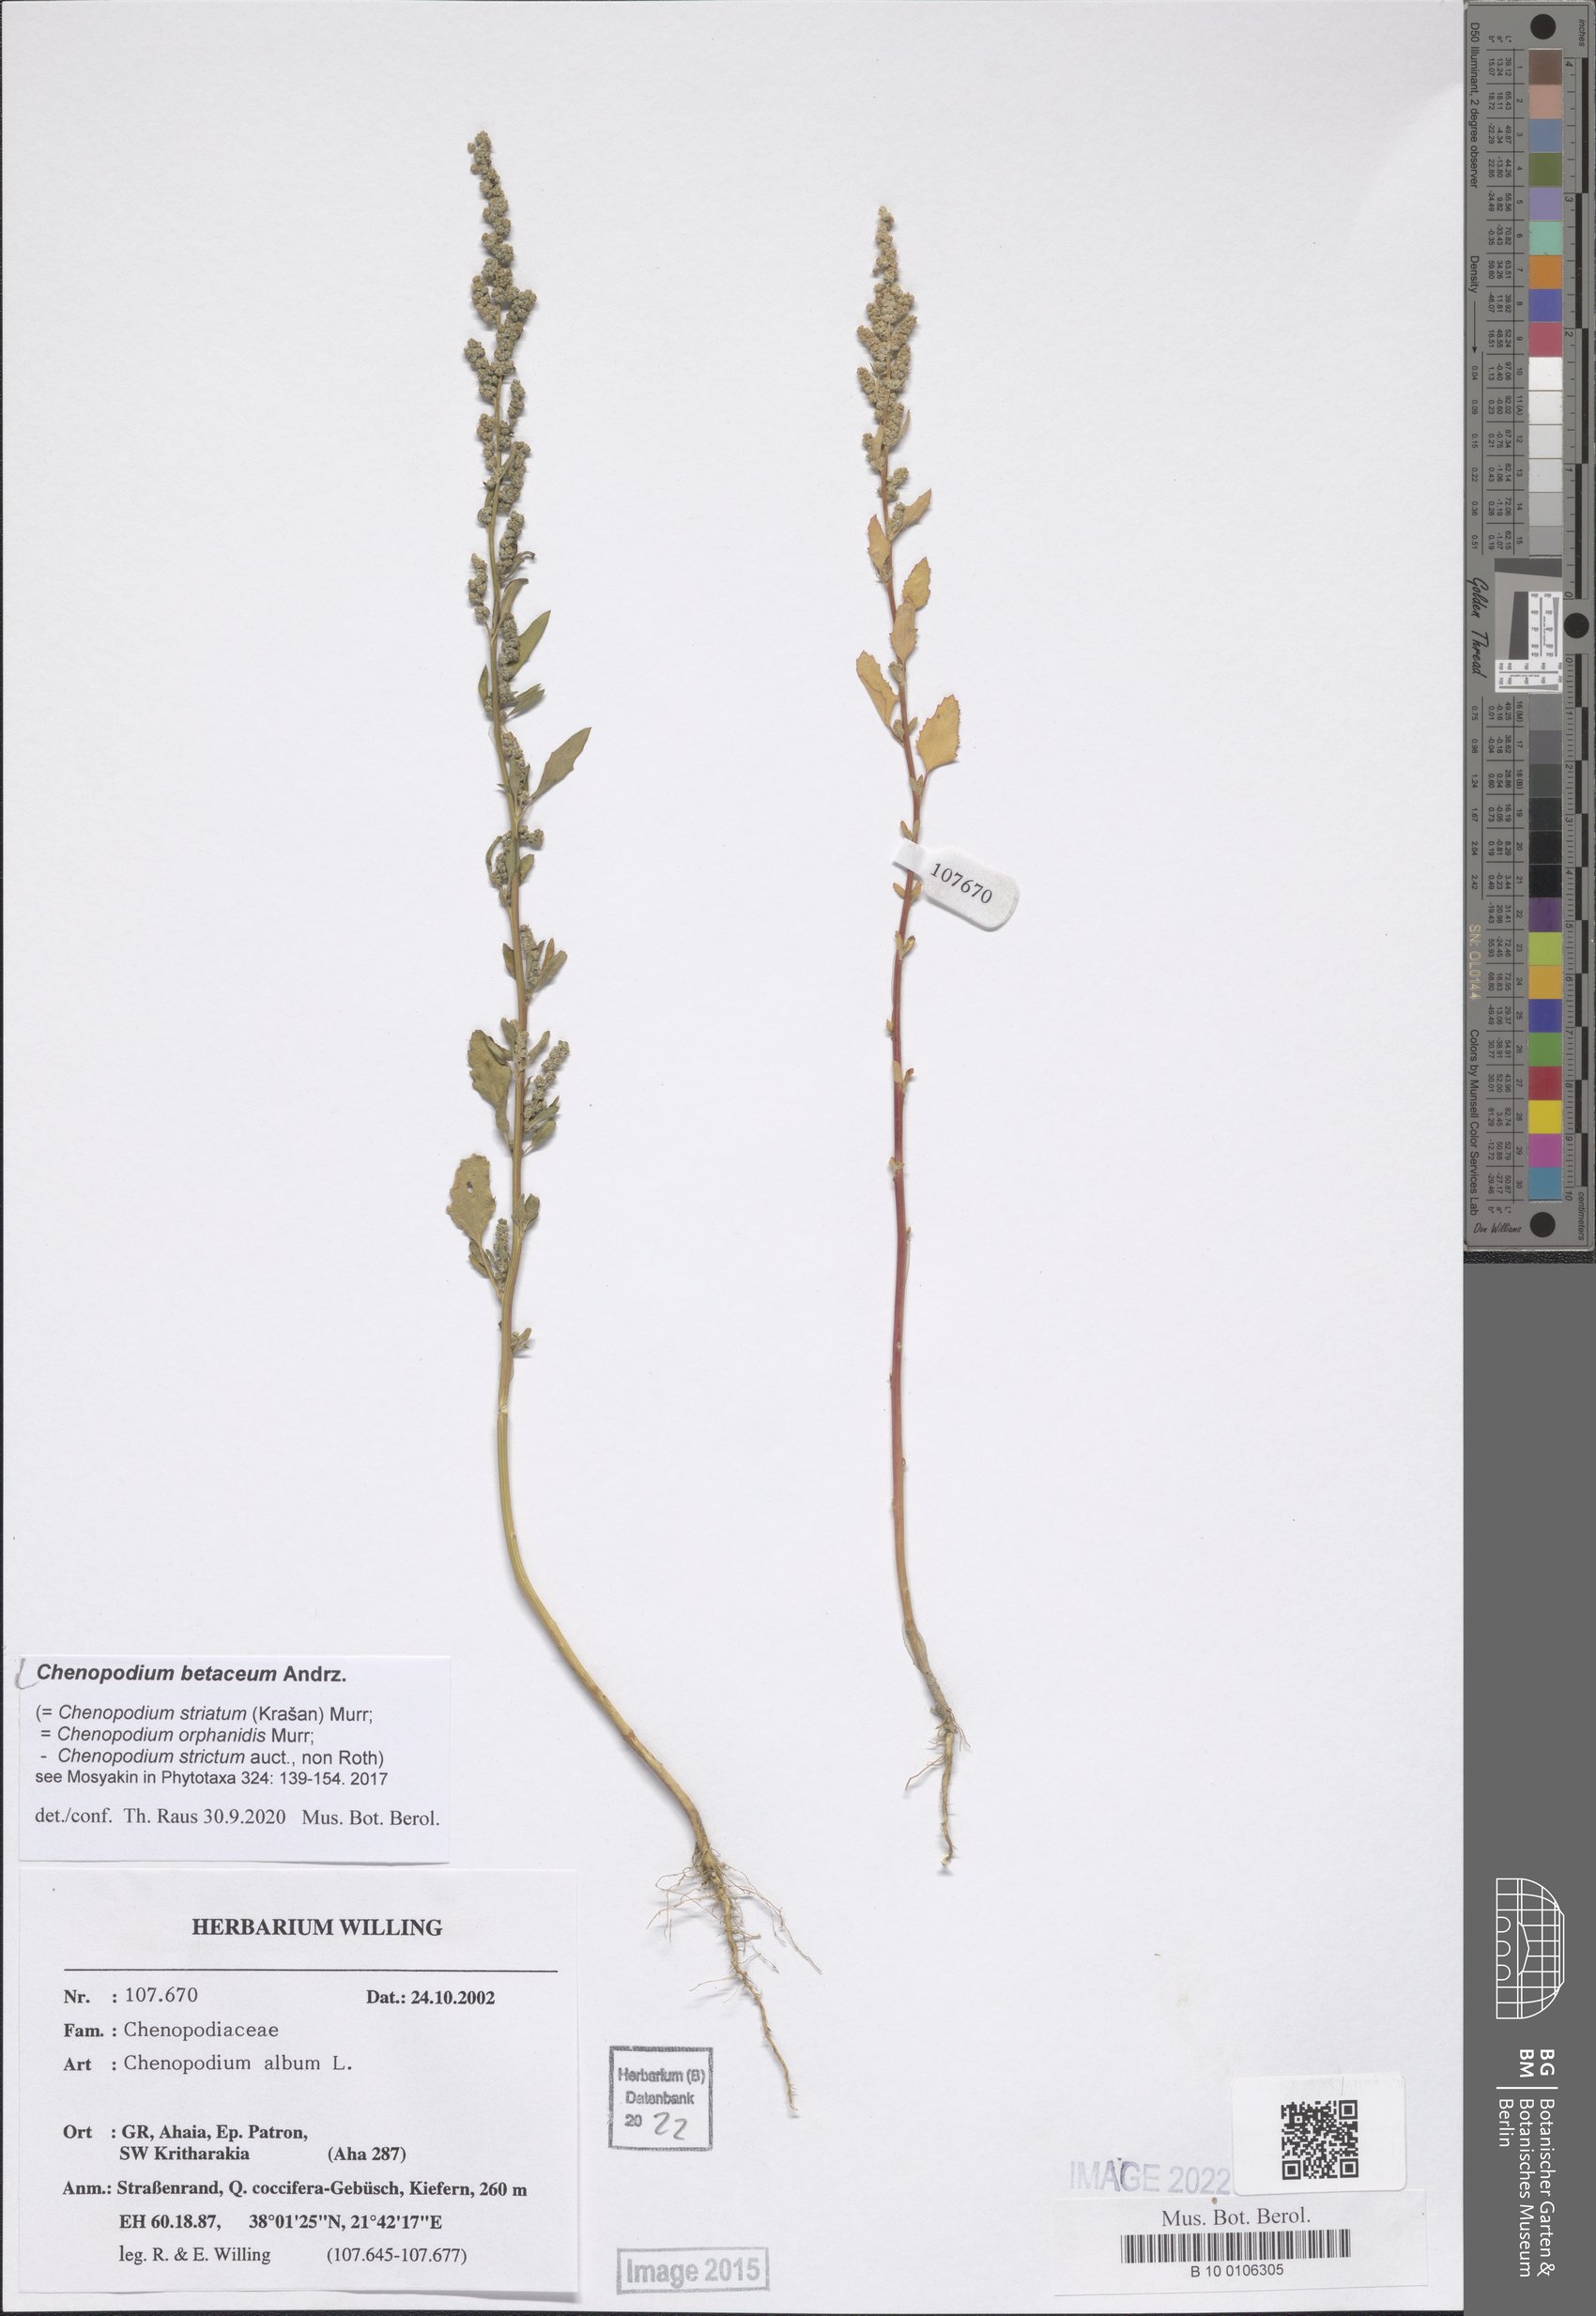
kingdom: Plantae
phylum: Tracheophyta
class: Magnoliopsida
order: Caryophyllales
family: Amaranthaceae
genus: Chenopodium
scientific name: Chenopodium betaceum
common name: Striped goosefoot
